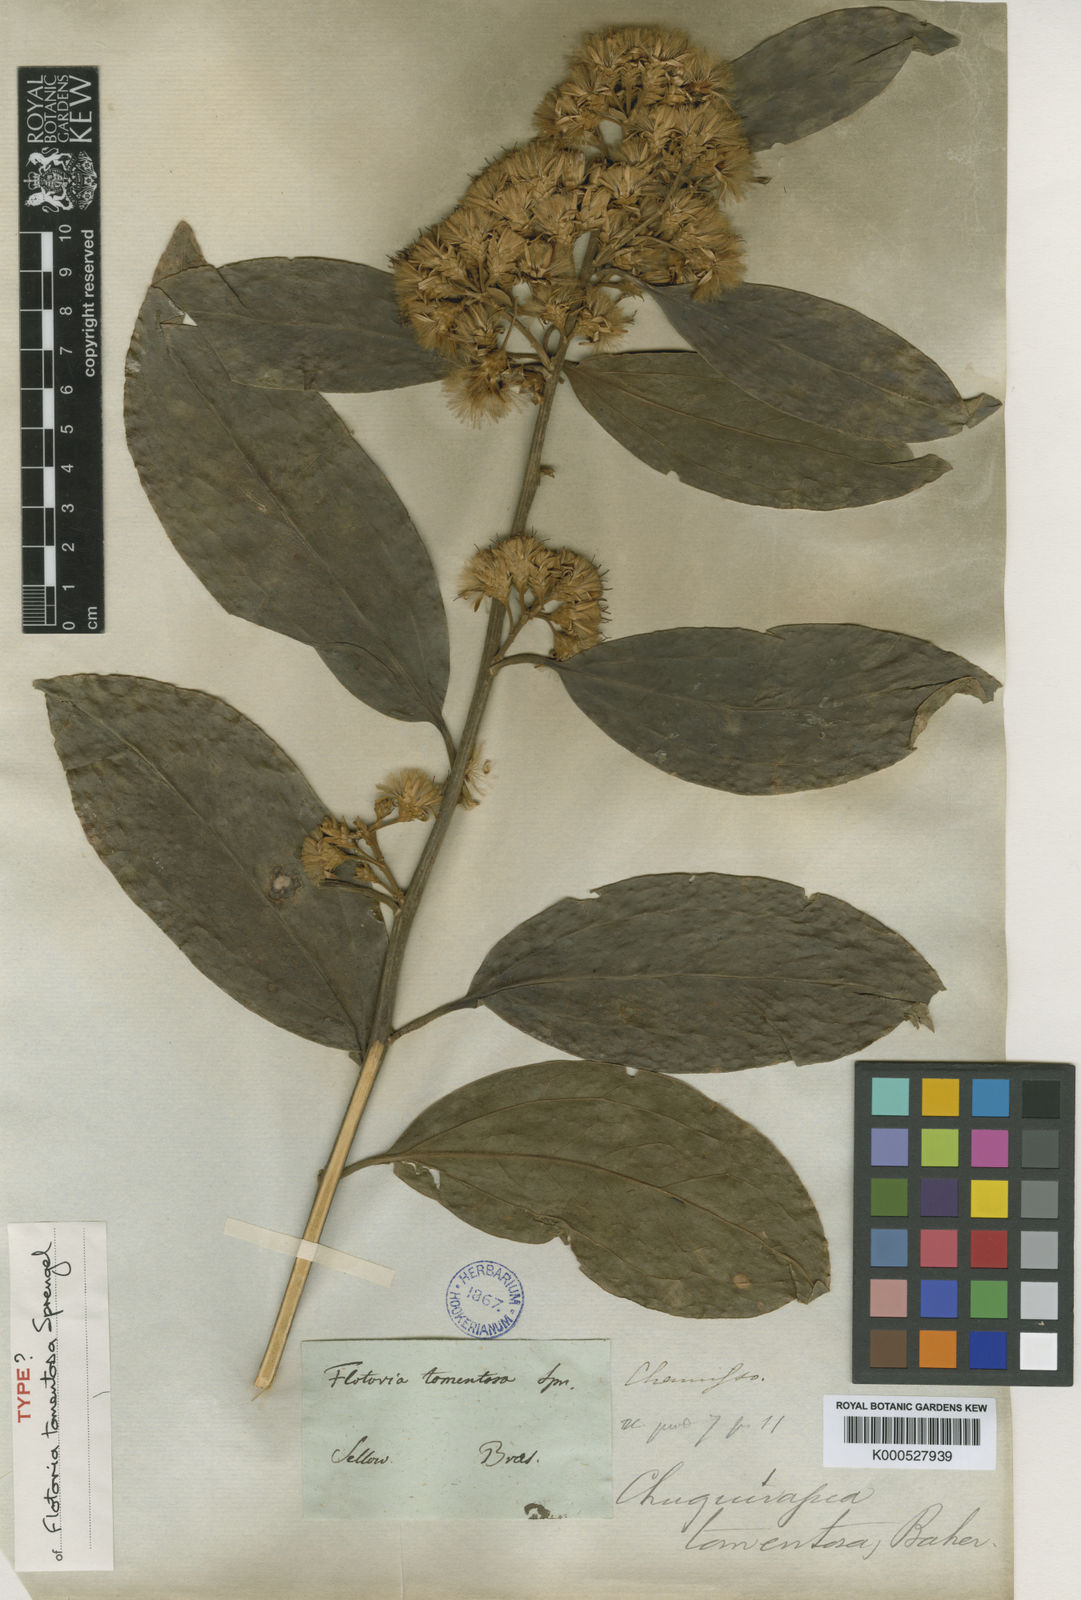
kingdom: Plantae
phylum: Tracheophyta
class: Magnoliopsida
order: Asterales
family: Asteraceae
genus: Dasyphyllum
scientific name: Dasyphyllum tomentosum
